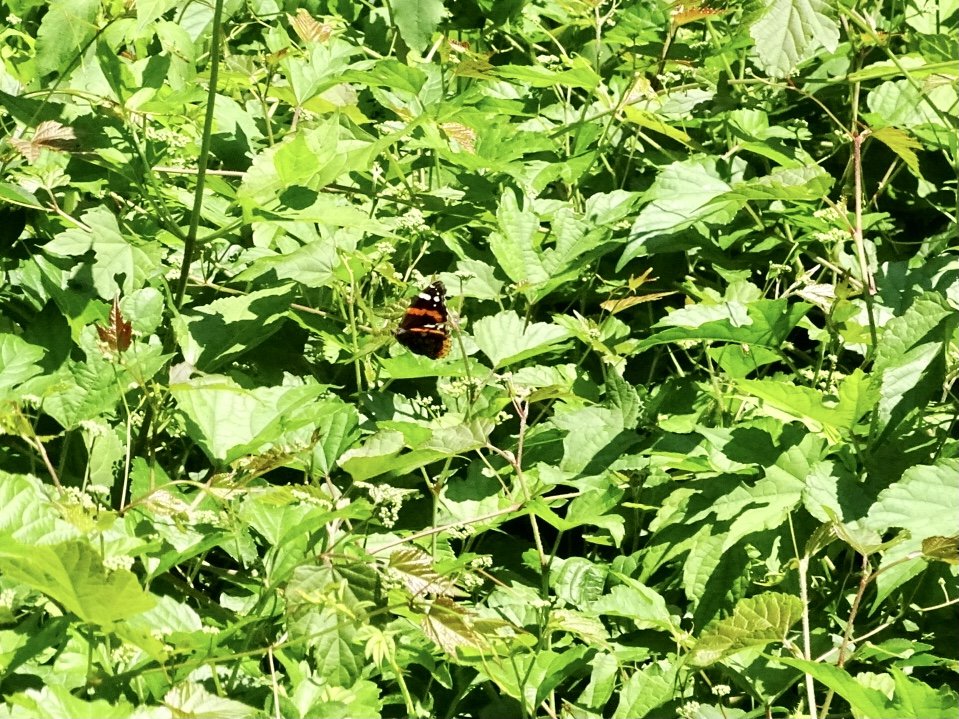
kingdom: Animalia
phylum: Arthropoda
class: Insecta
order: Lepidoptera
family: Nymphalidae
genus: Vanessa
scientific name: Vanessa atalanta
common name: Red Admiral
